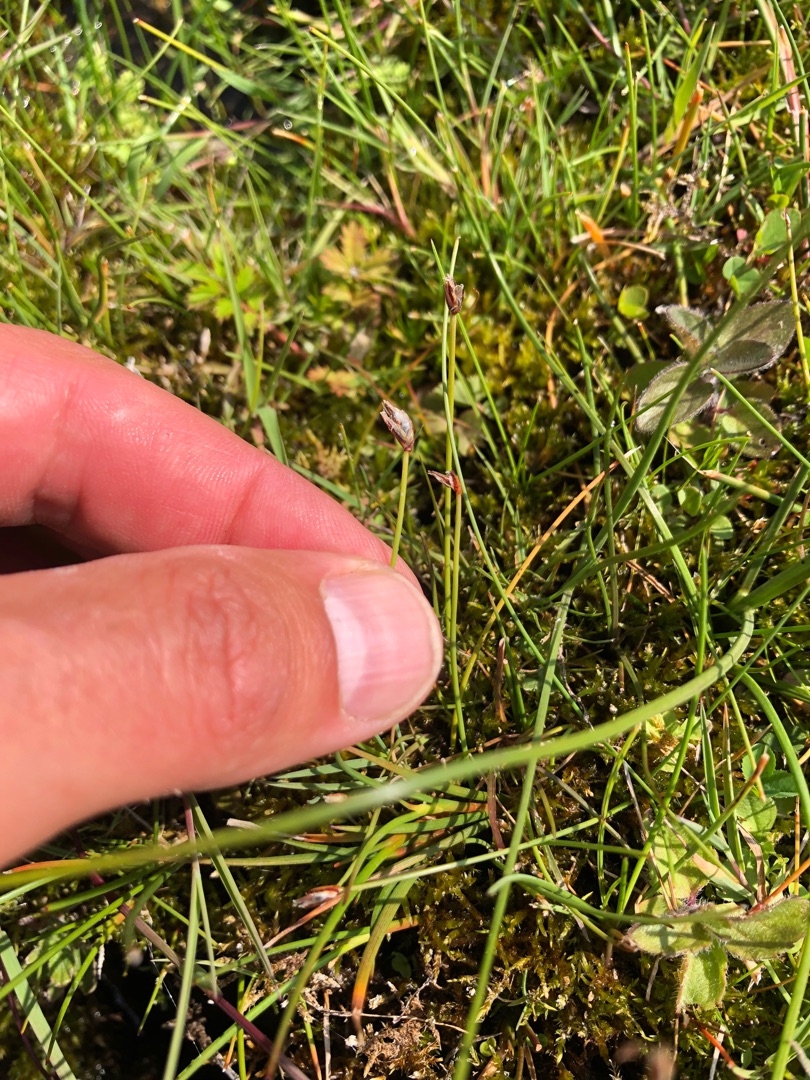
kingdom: Plantae
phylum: Tracheophyta
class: Liliopsida
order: Poales
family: Cyperaceae
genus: Eleocharis
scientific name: Eleocharis quinqueflora
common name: Fåblomstret kogleaks
